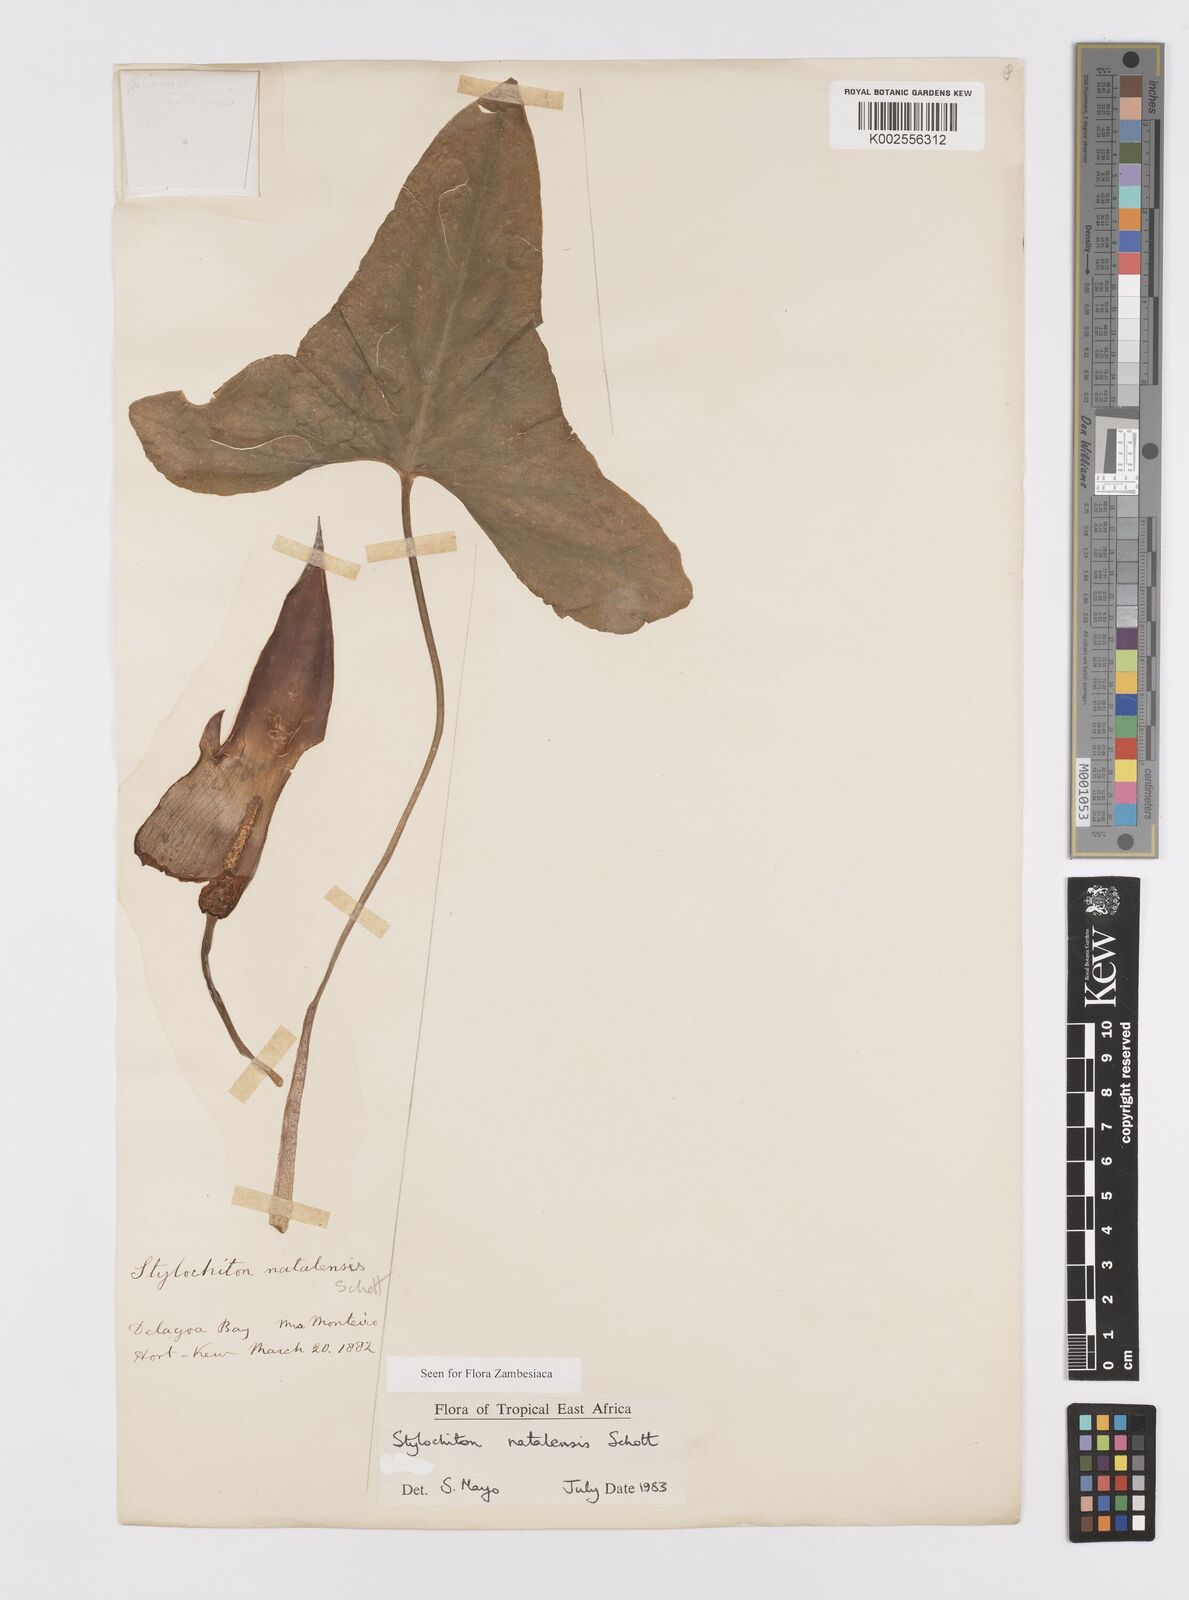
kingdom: Plantae
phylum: Tracheophyta
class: Liliopsida
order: Alismatales
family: Araceae
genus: Stylochaeton
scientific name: Stylochaeton natalense
